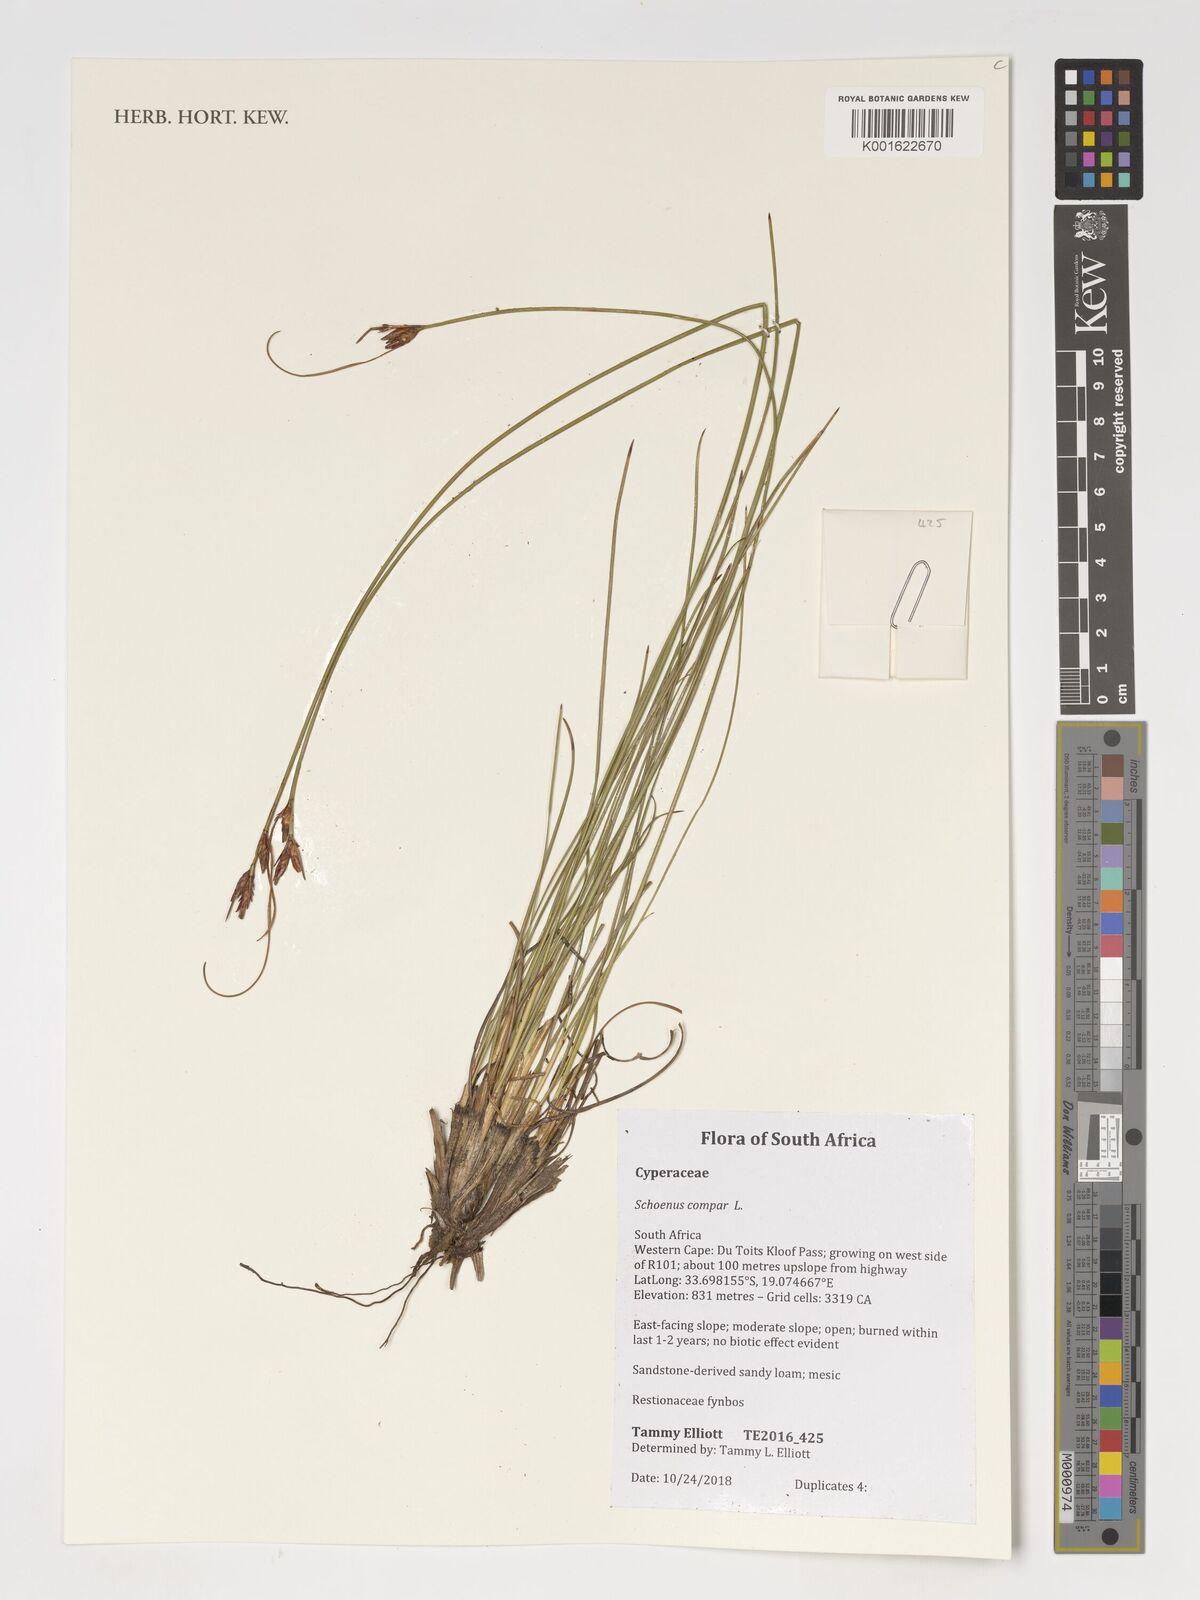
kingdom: Plantae
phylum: Tracheophyta
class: Liliopsida
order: Poales
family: Cyperaceae
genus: Schoenus
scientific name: Schoenus compar
